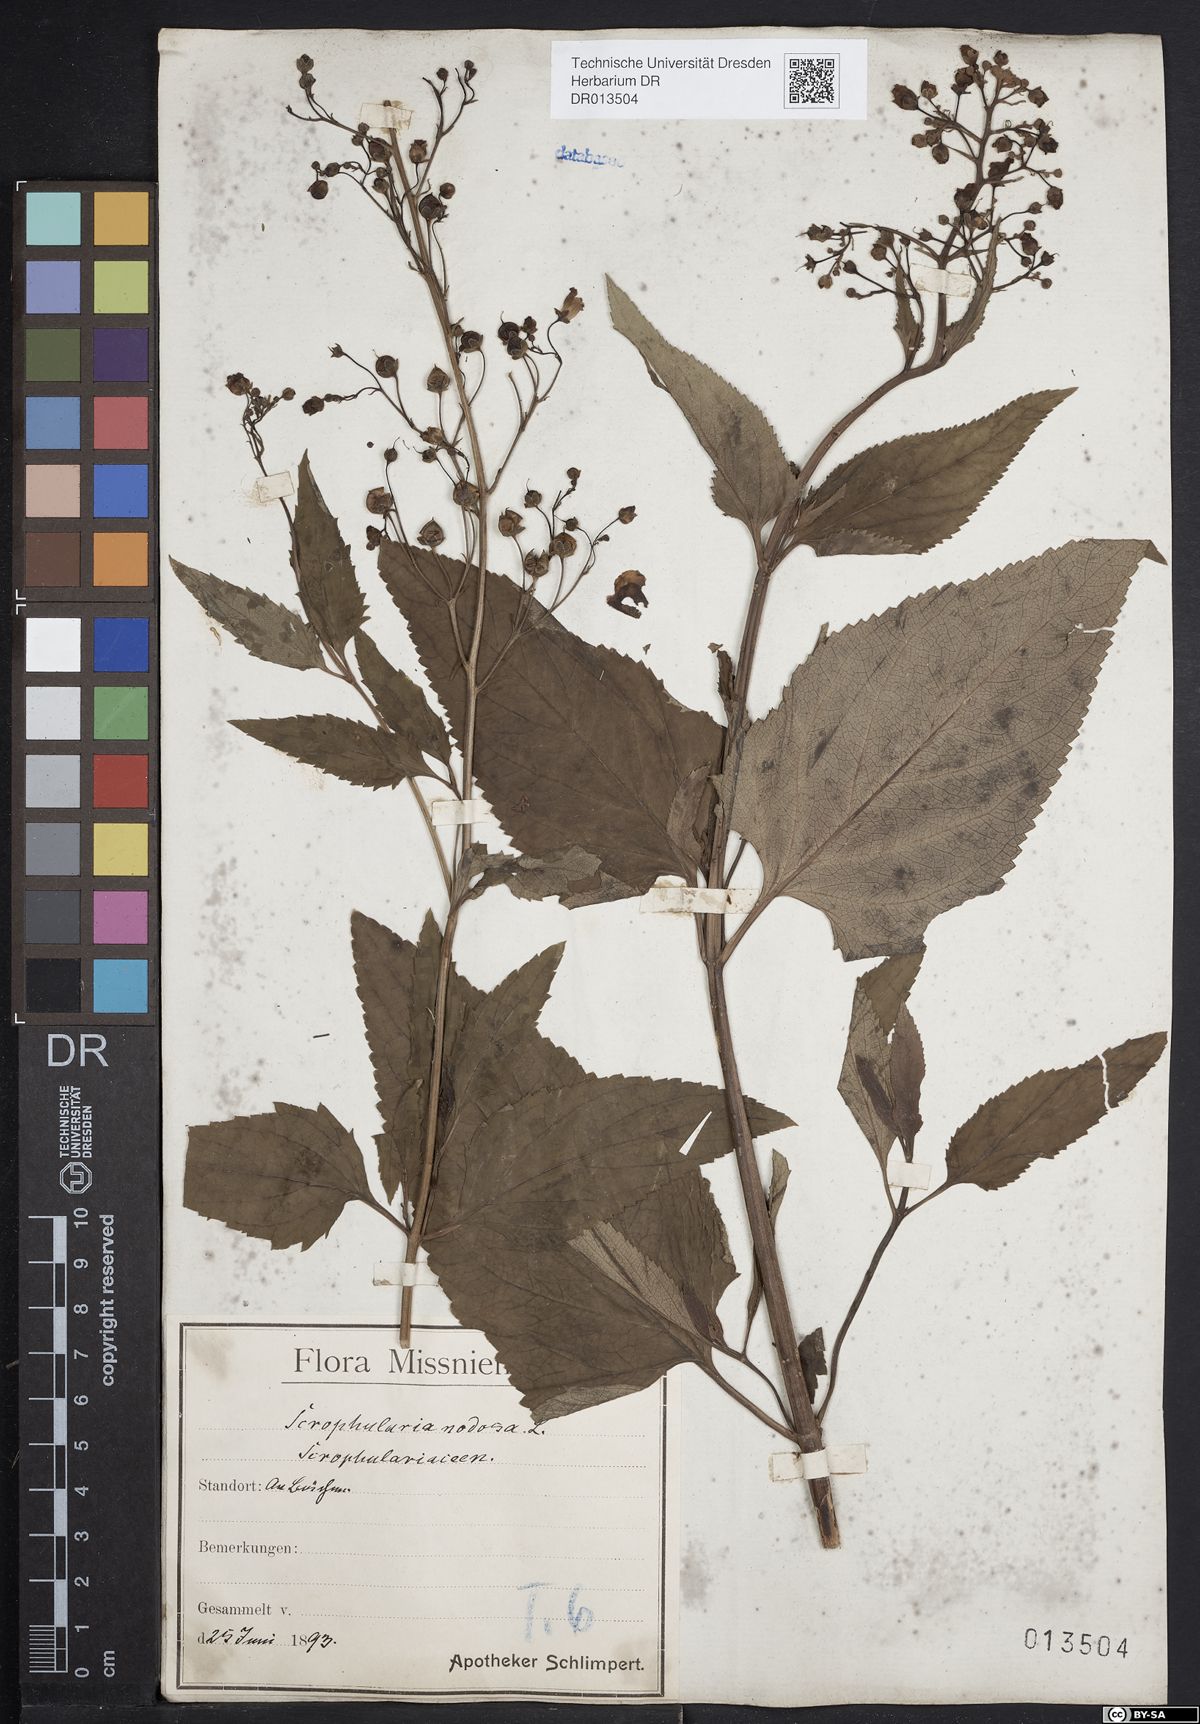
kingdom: Plantae
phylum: Tracheophyta
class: Magnoliopsida
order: Lamiales
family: Scrophulariaceae
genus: Scrophularia
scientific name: Scrophularia nodosa
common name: Common figwort
